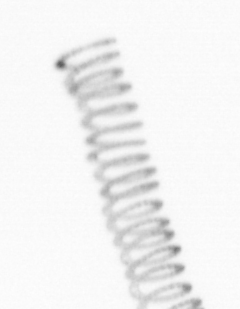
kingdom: Chromista
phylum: Ochrophyta
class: Bacillariophyceae
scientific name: Bacillariophyceae
